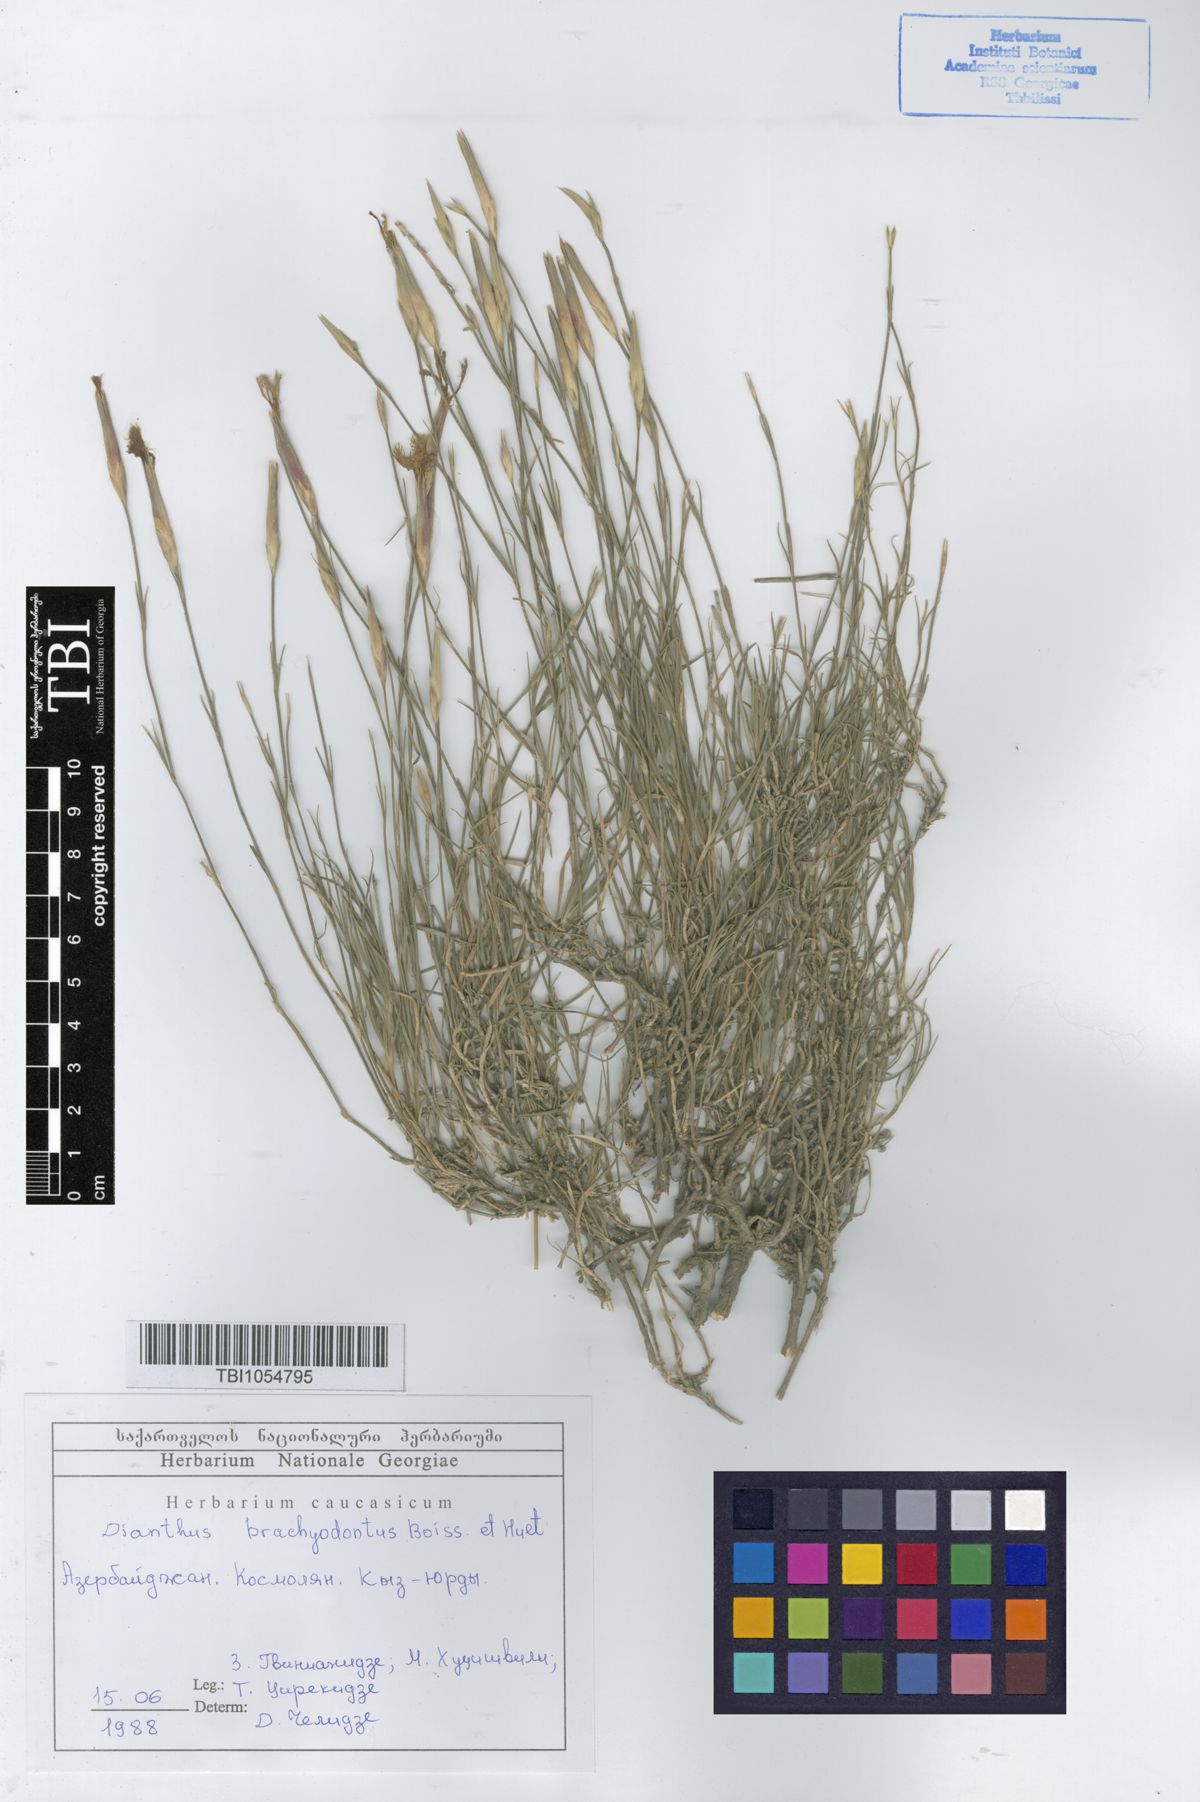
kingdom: Plantae
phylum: Tracheophyta
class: Magnoliopsida
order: Caryophyllales
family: Caryophyllaceae
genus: Dianthus
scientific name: Dianthus
